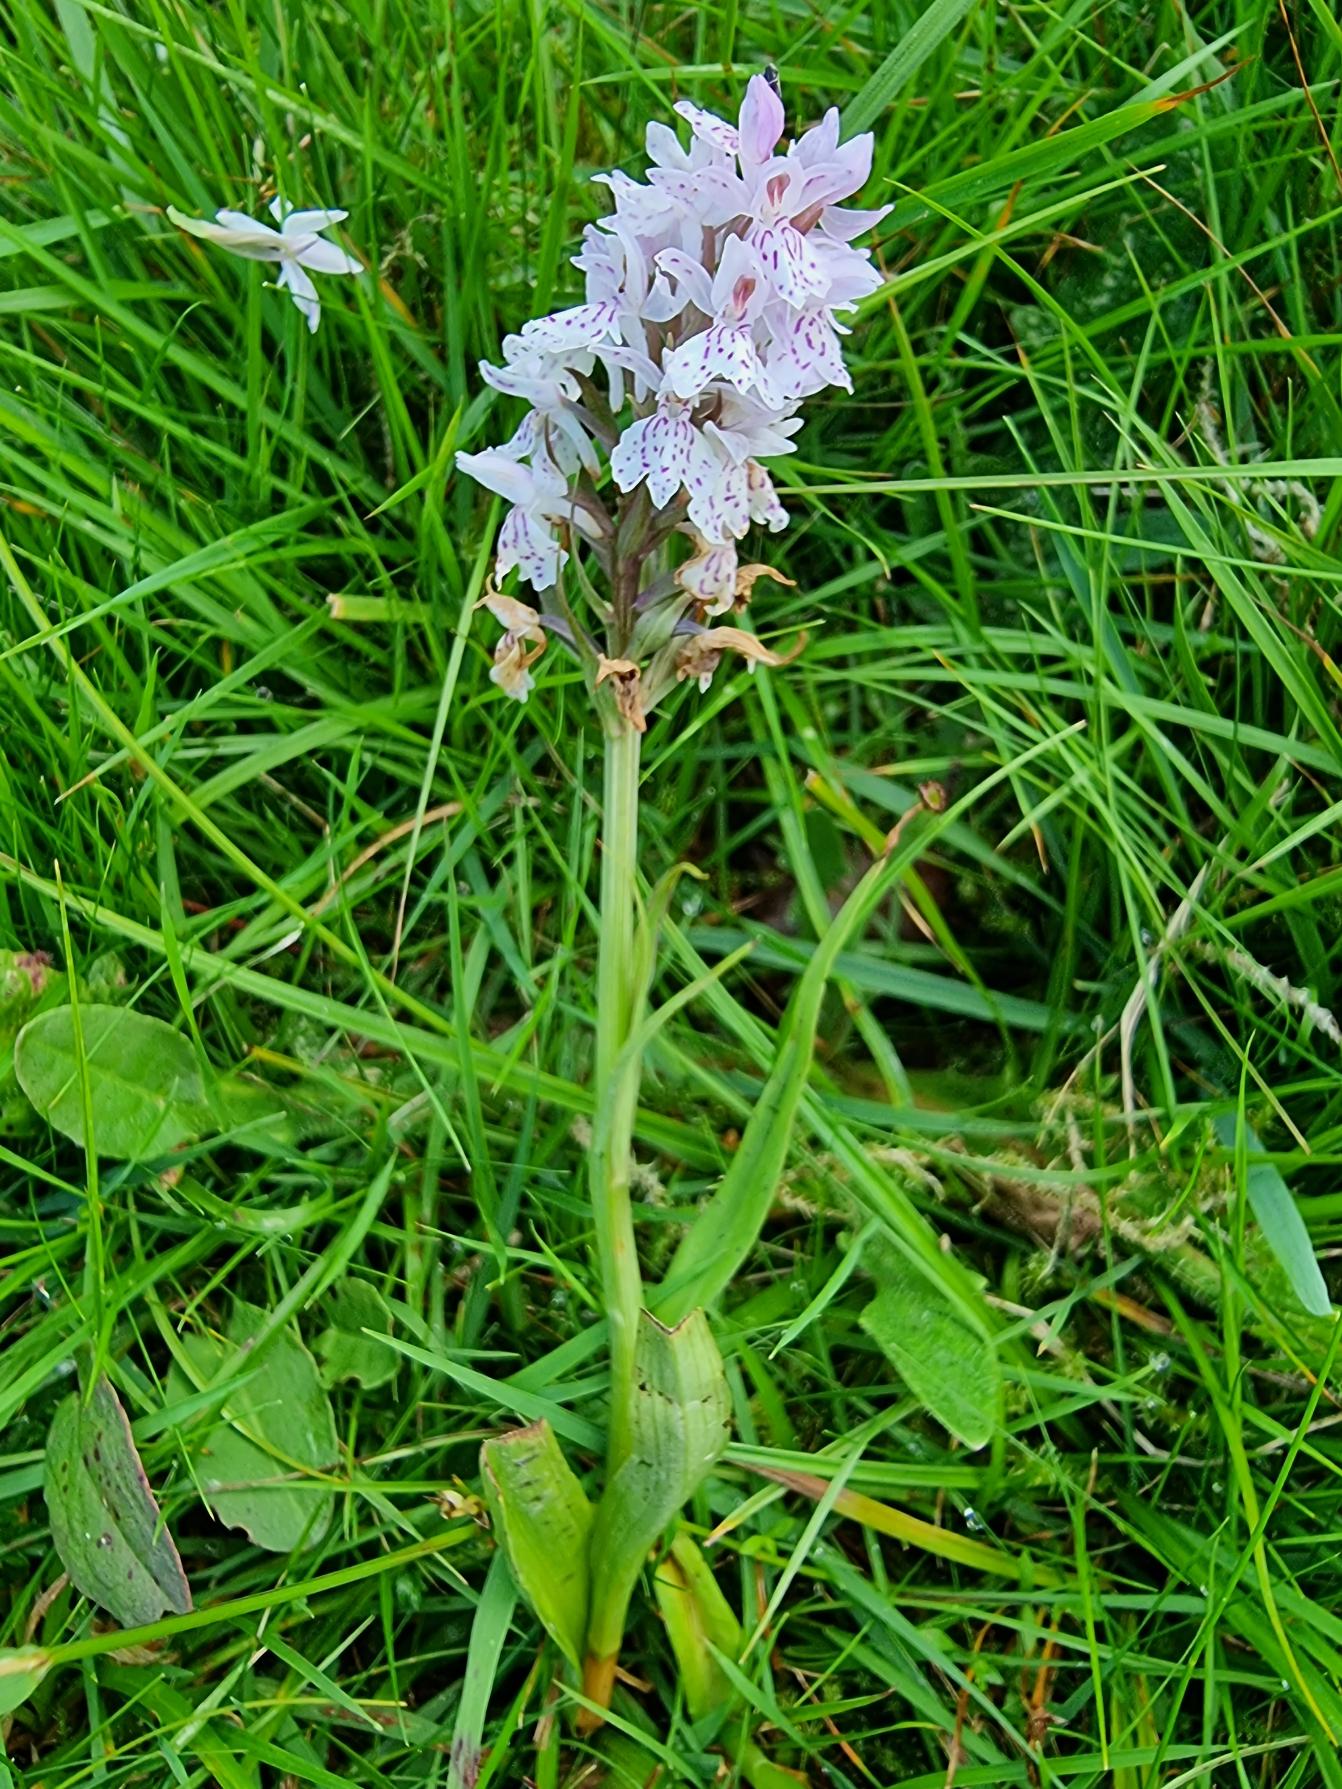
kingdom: Plantae
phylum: Tracheophyta
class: Liliopsida
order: Asparagales
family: Orchidaceae
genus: Dactylorhiza
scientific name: Dactylorhiza maculata
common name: Plettet gøgeurt
